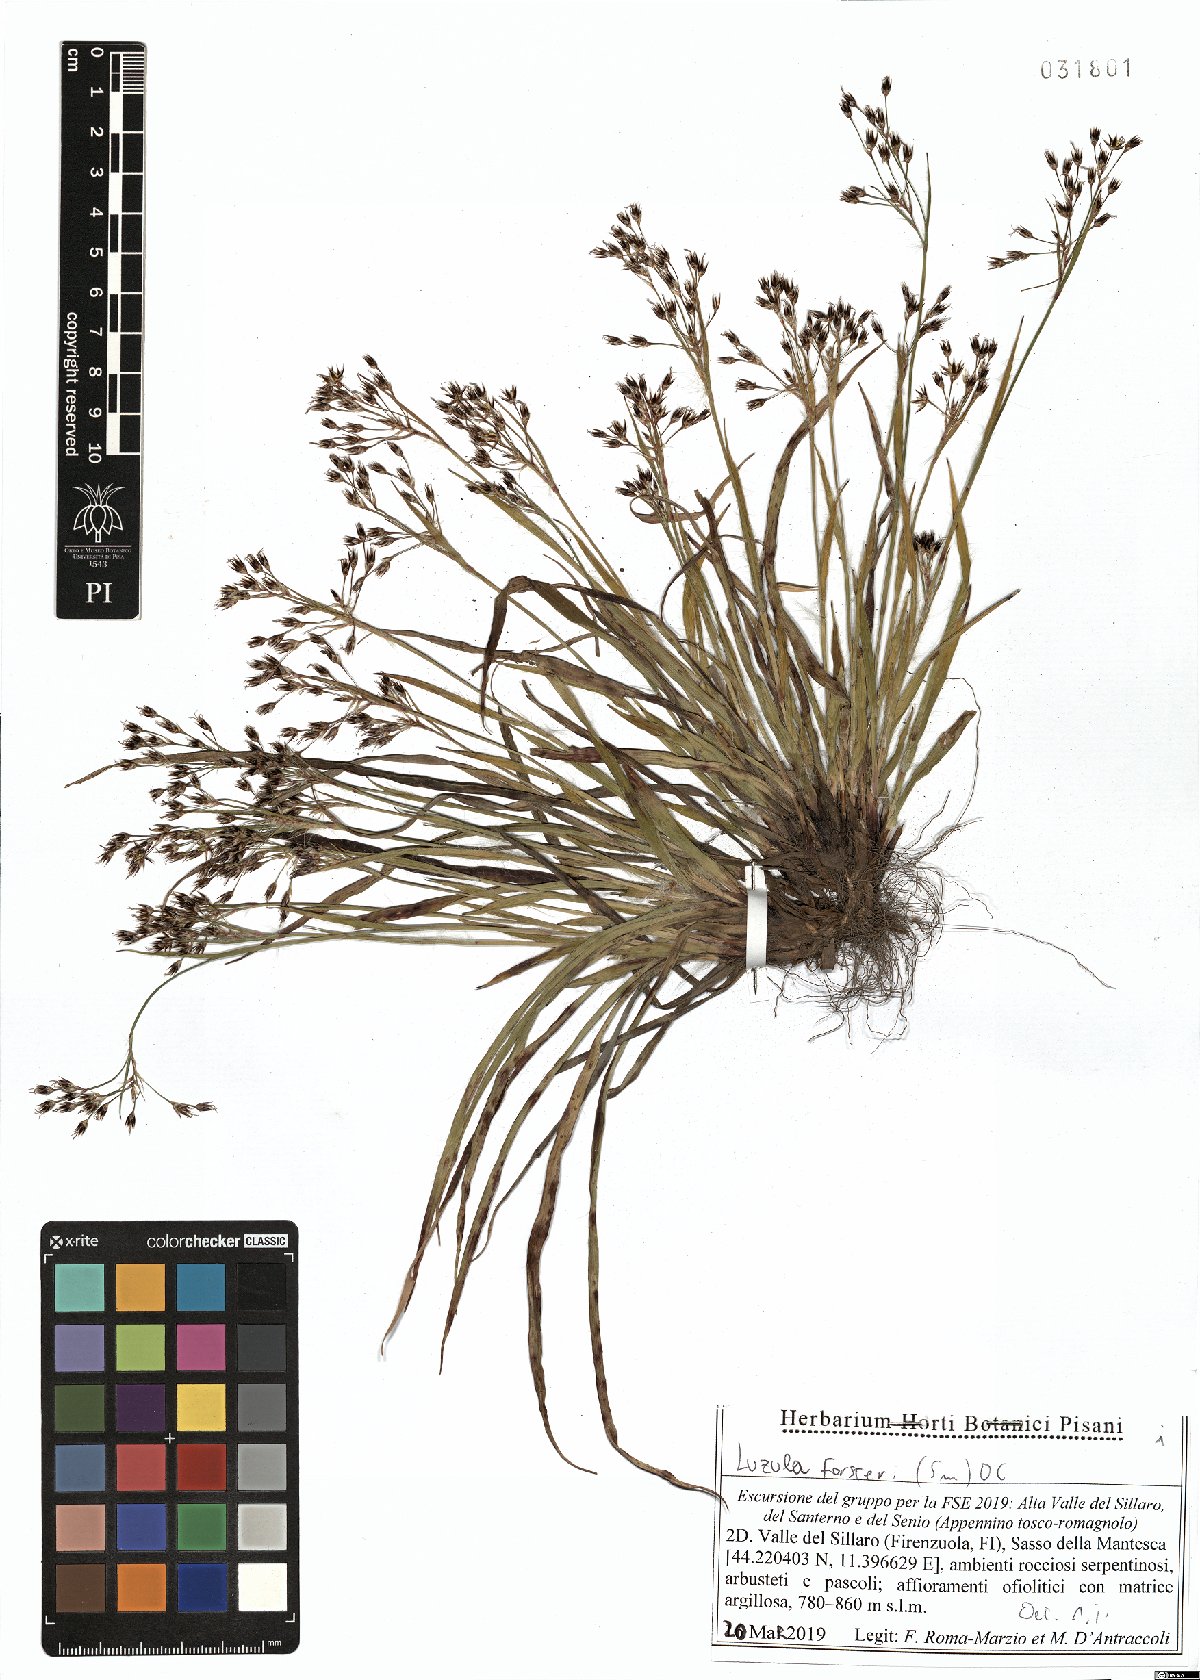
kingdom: Plantae
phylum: Tracheophyta
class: Liliopsida
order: Poales
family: Juncaceae
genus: Luzula
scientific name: Luzula forsteri
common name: Southern wood-rush
